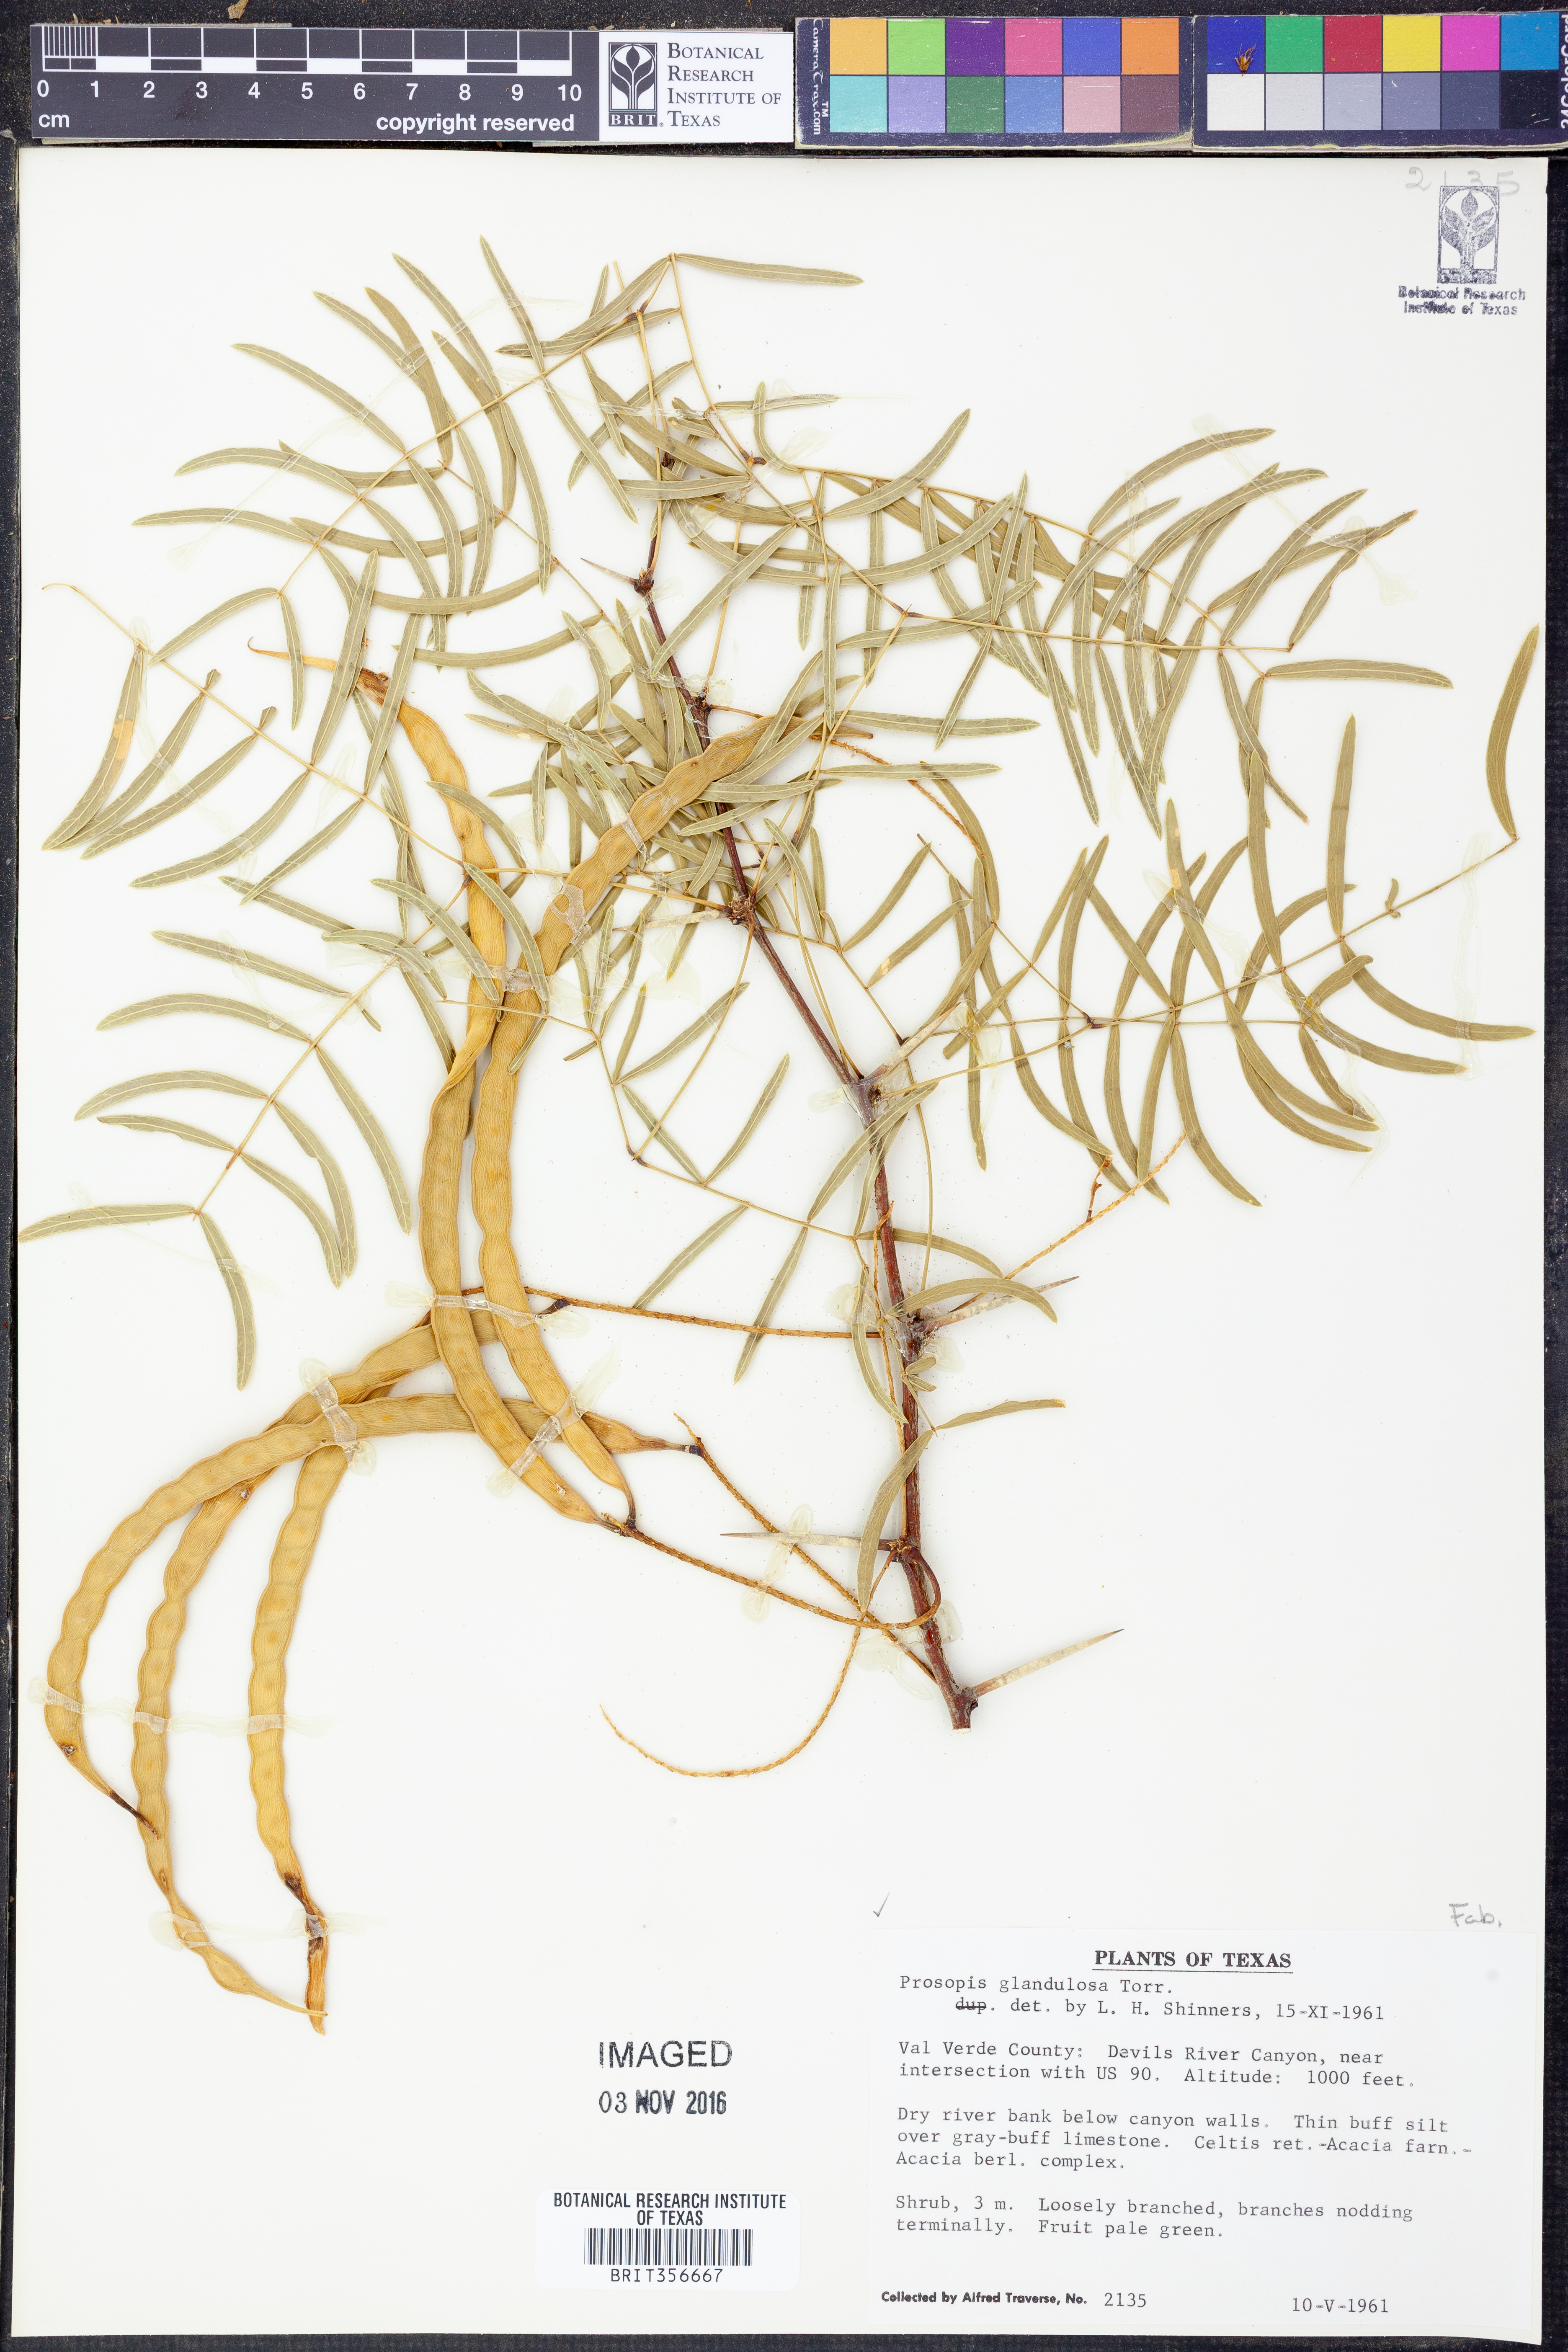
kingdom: Plantae
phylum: Tracheophyta
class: Magnoliopsida
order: Fabales
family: Fabaceae
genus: Prosopis
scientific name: Prosopis glandulosa
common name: Honey mesquite
